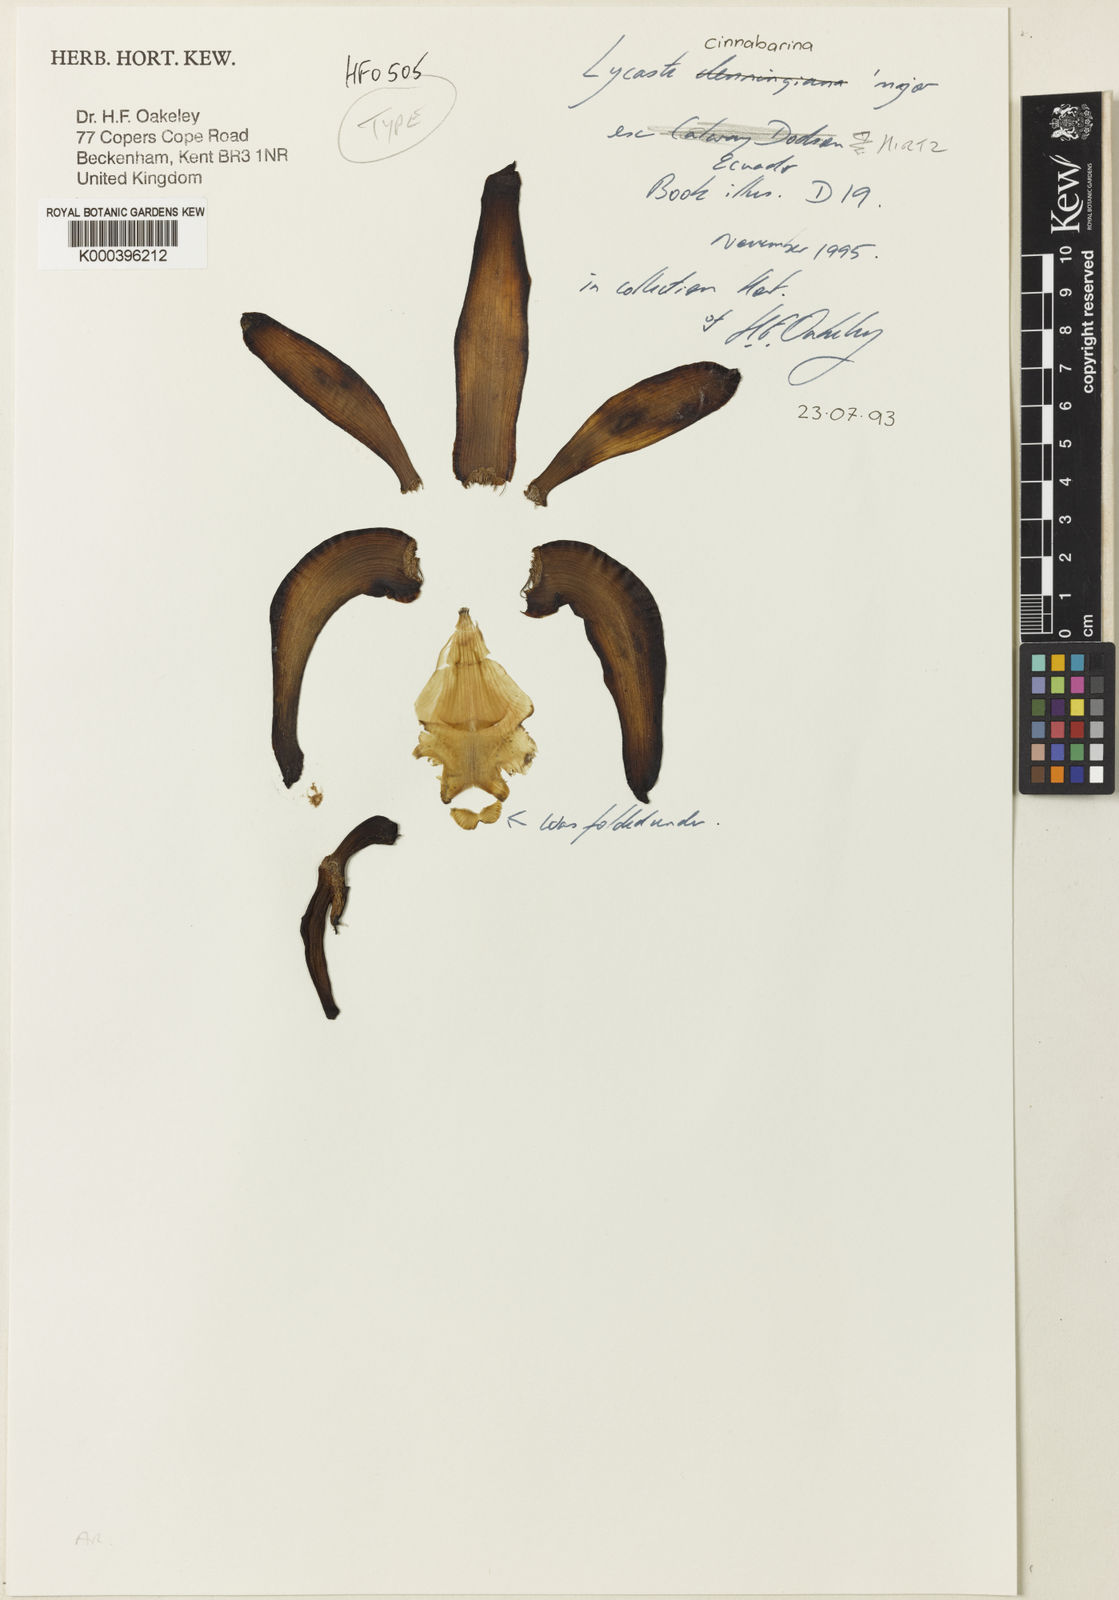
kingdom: Plantae
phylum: Tracheophyta
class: Liliopsida
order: Asparagales
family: Orchidaceae
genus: Ida
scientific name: Ida cinnabarina
